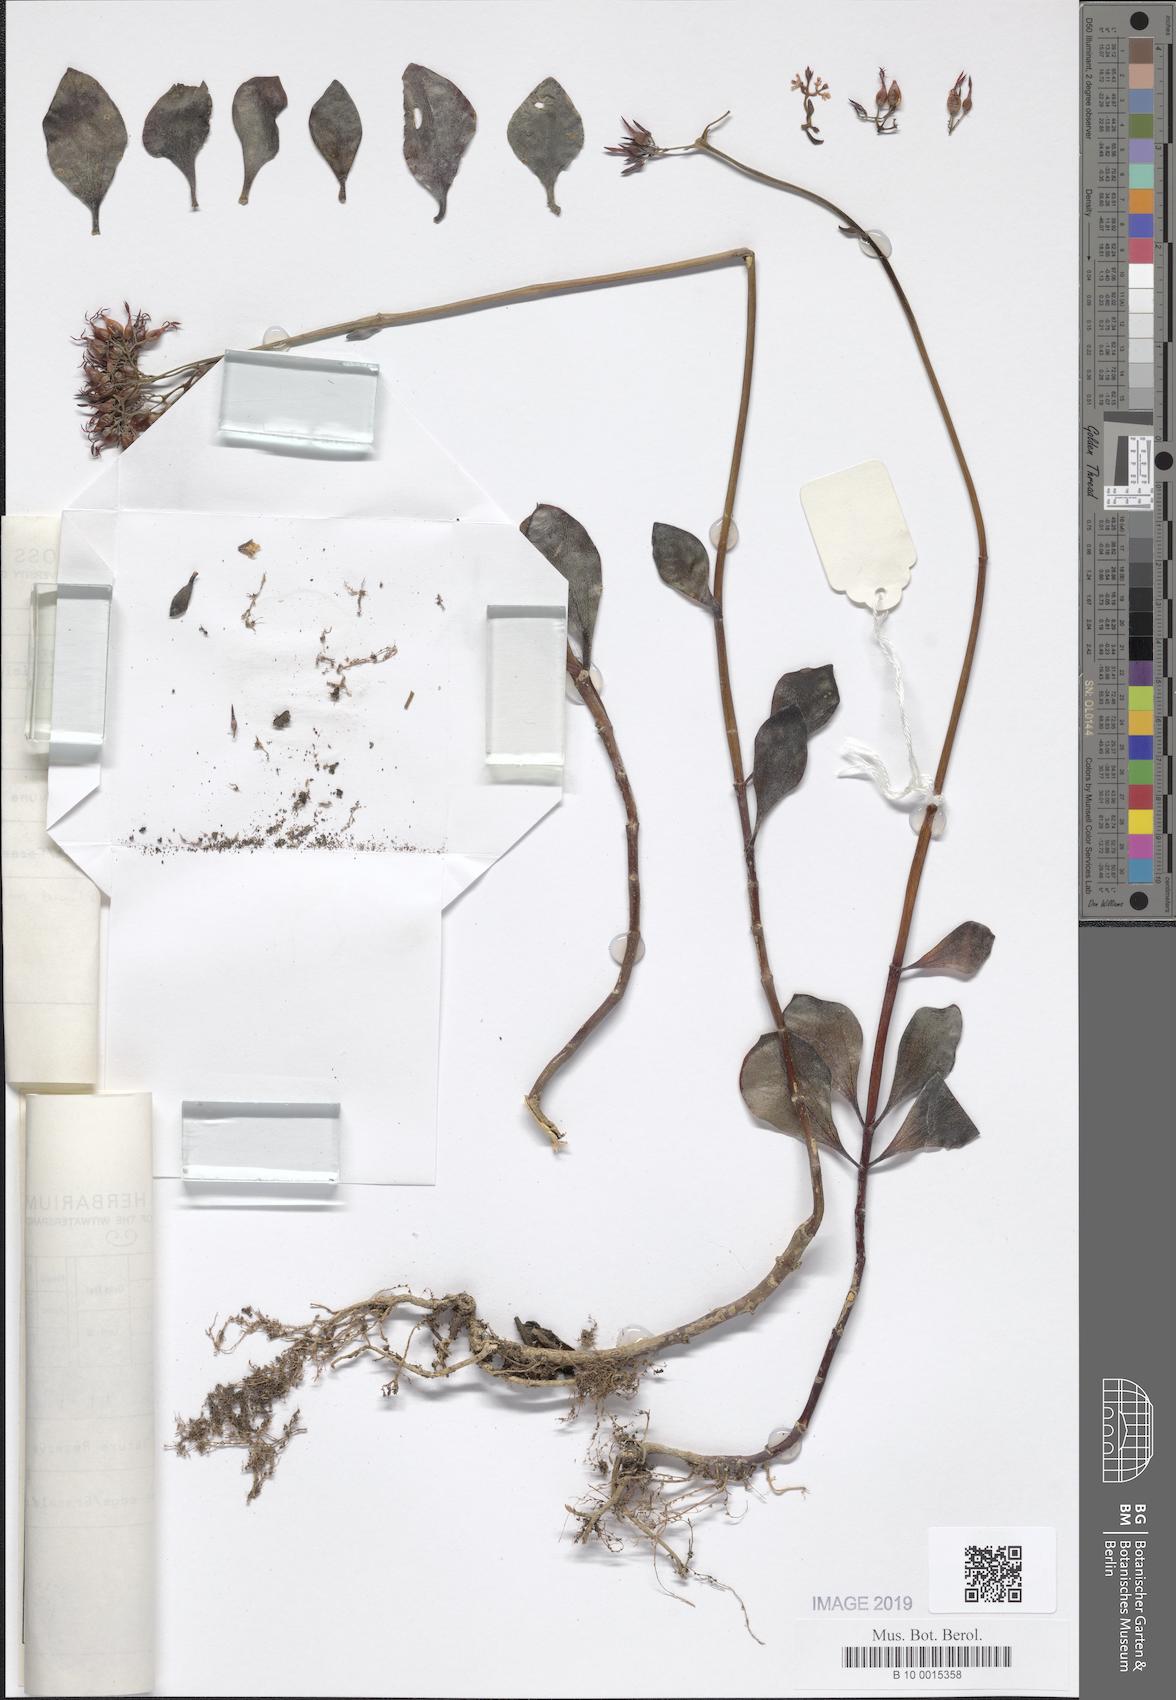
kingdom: Plantae
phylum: Tracheophyta
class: Magnoliopsida
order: Saxifragales
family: Crassulaceae
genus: Kalanchoe
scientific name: Kalanchoe rotundifolia
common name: Common kalanchoe
